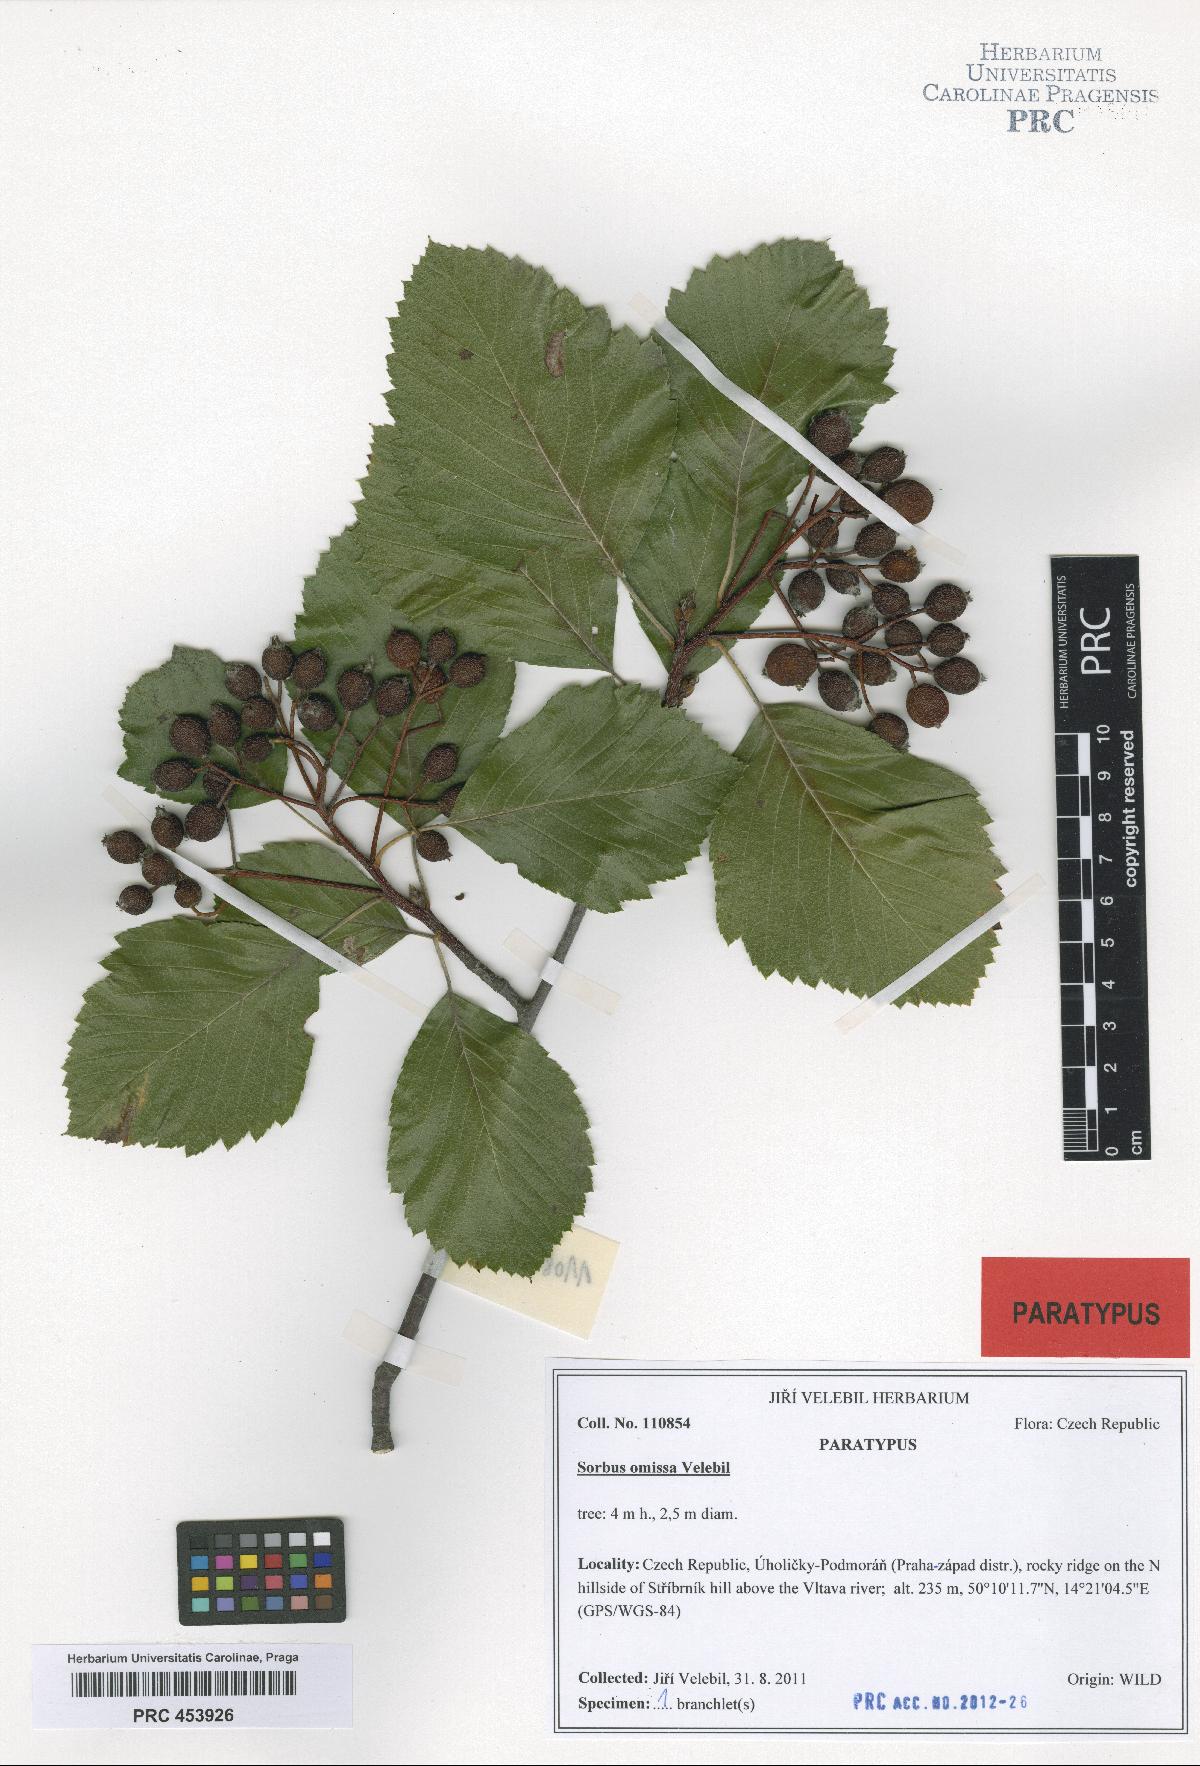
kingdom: Plantae
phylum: Tracheophyta
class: Magnoliopsida
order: Rosales
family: Rosaceae
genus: Karpatiosorbus
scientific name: Karpatiosorbus omissa
